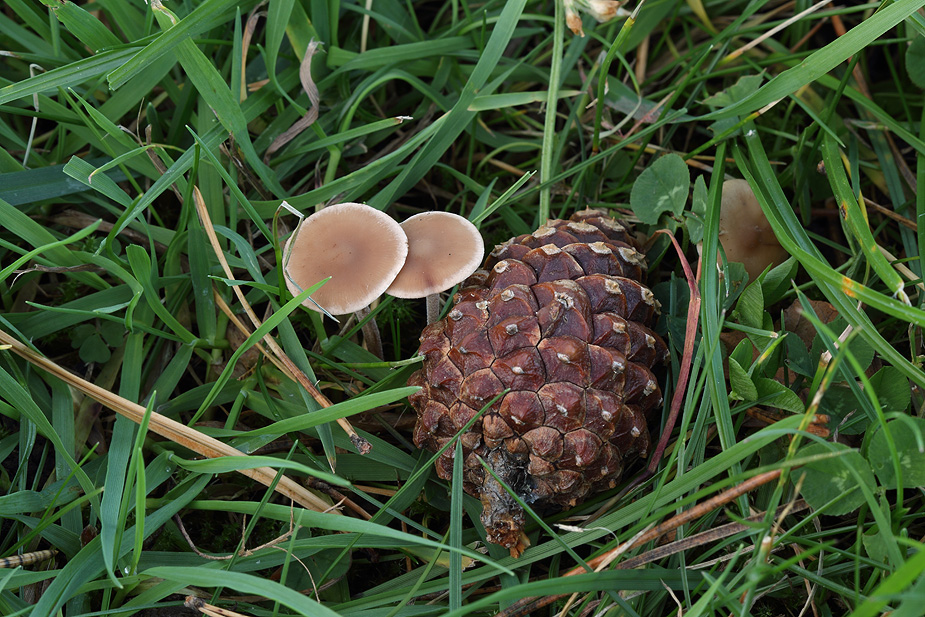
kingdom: Fungi
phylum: Basidiomycota
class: Agaricomycetes
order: Agaricales
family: Physalacriaceae
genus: Strobilurus
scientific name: Strobilurus tenacellus
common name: sommer-koglehat
